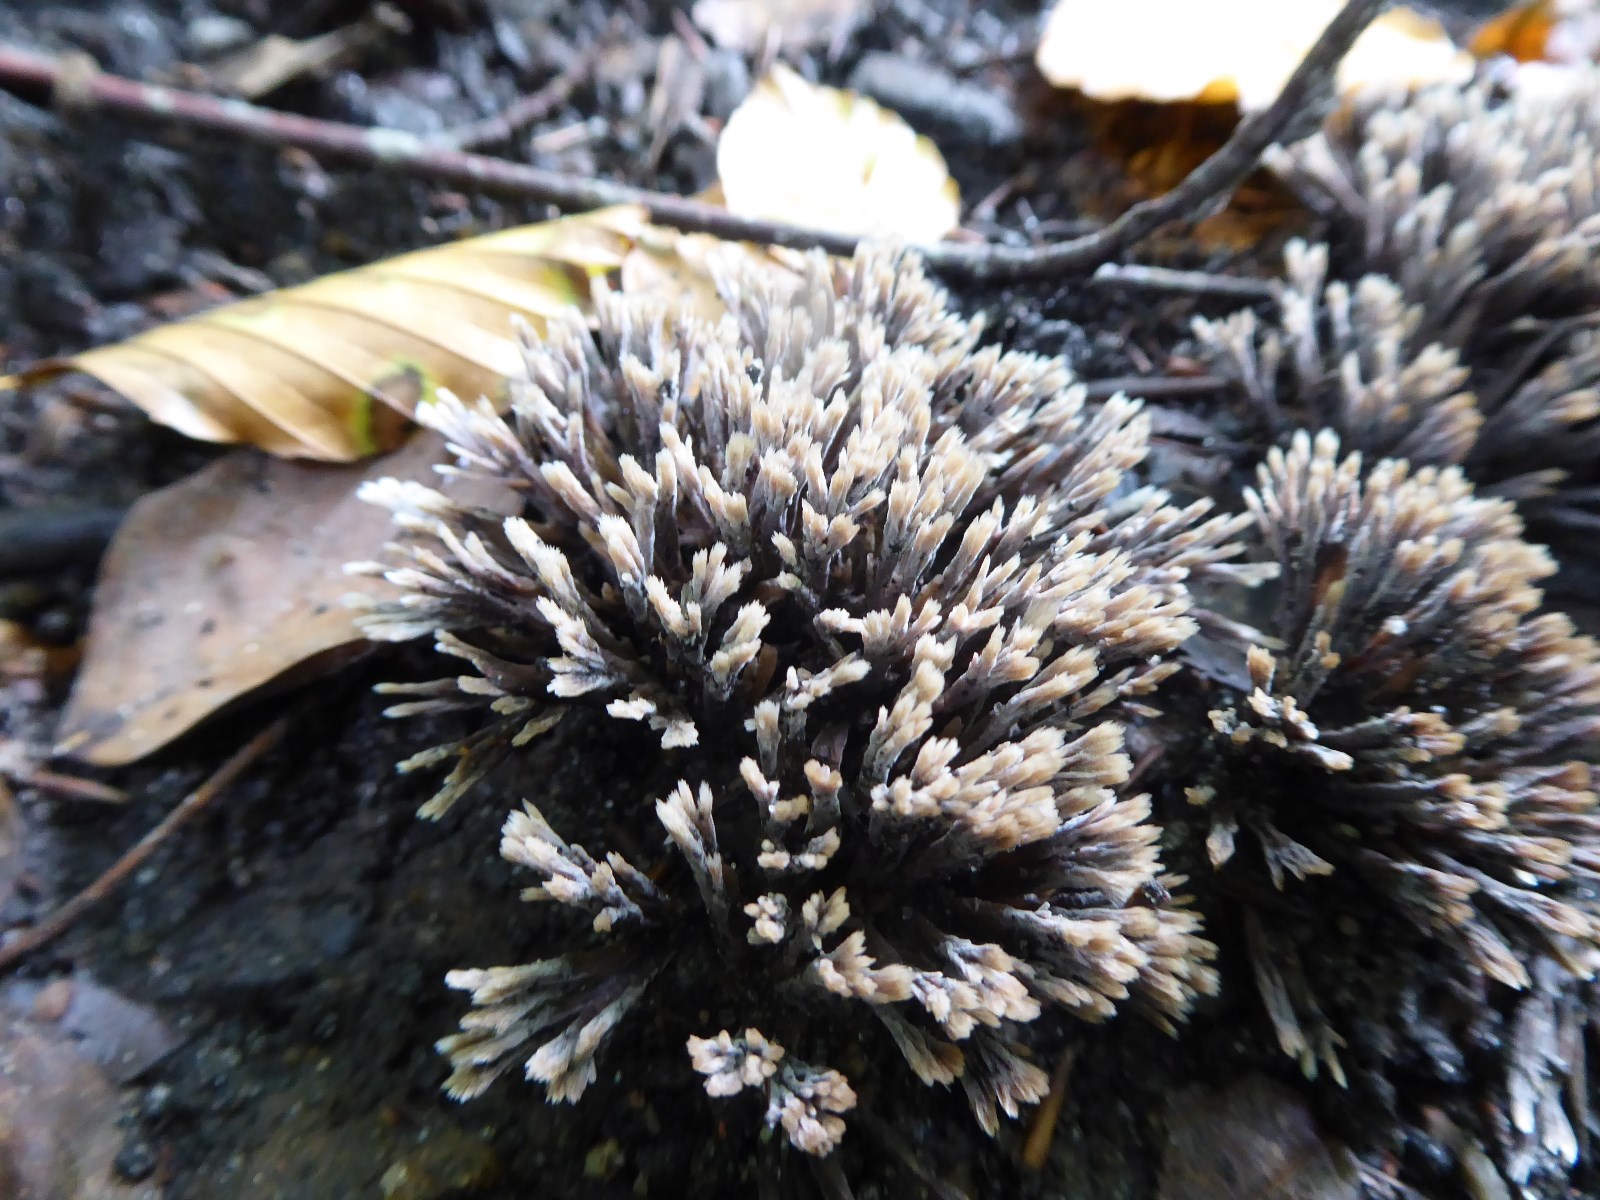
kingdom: Fungi
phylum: Basidiomycota
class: Agaricomycetes
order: Thelephorales
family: Thelephoraceae
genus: Thelephora
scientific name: Thelephora anthocephala
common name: busk-frynsesvamp
